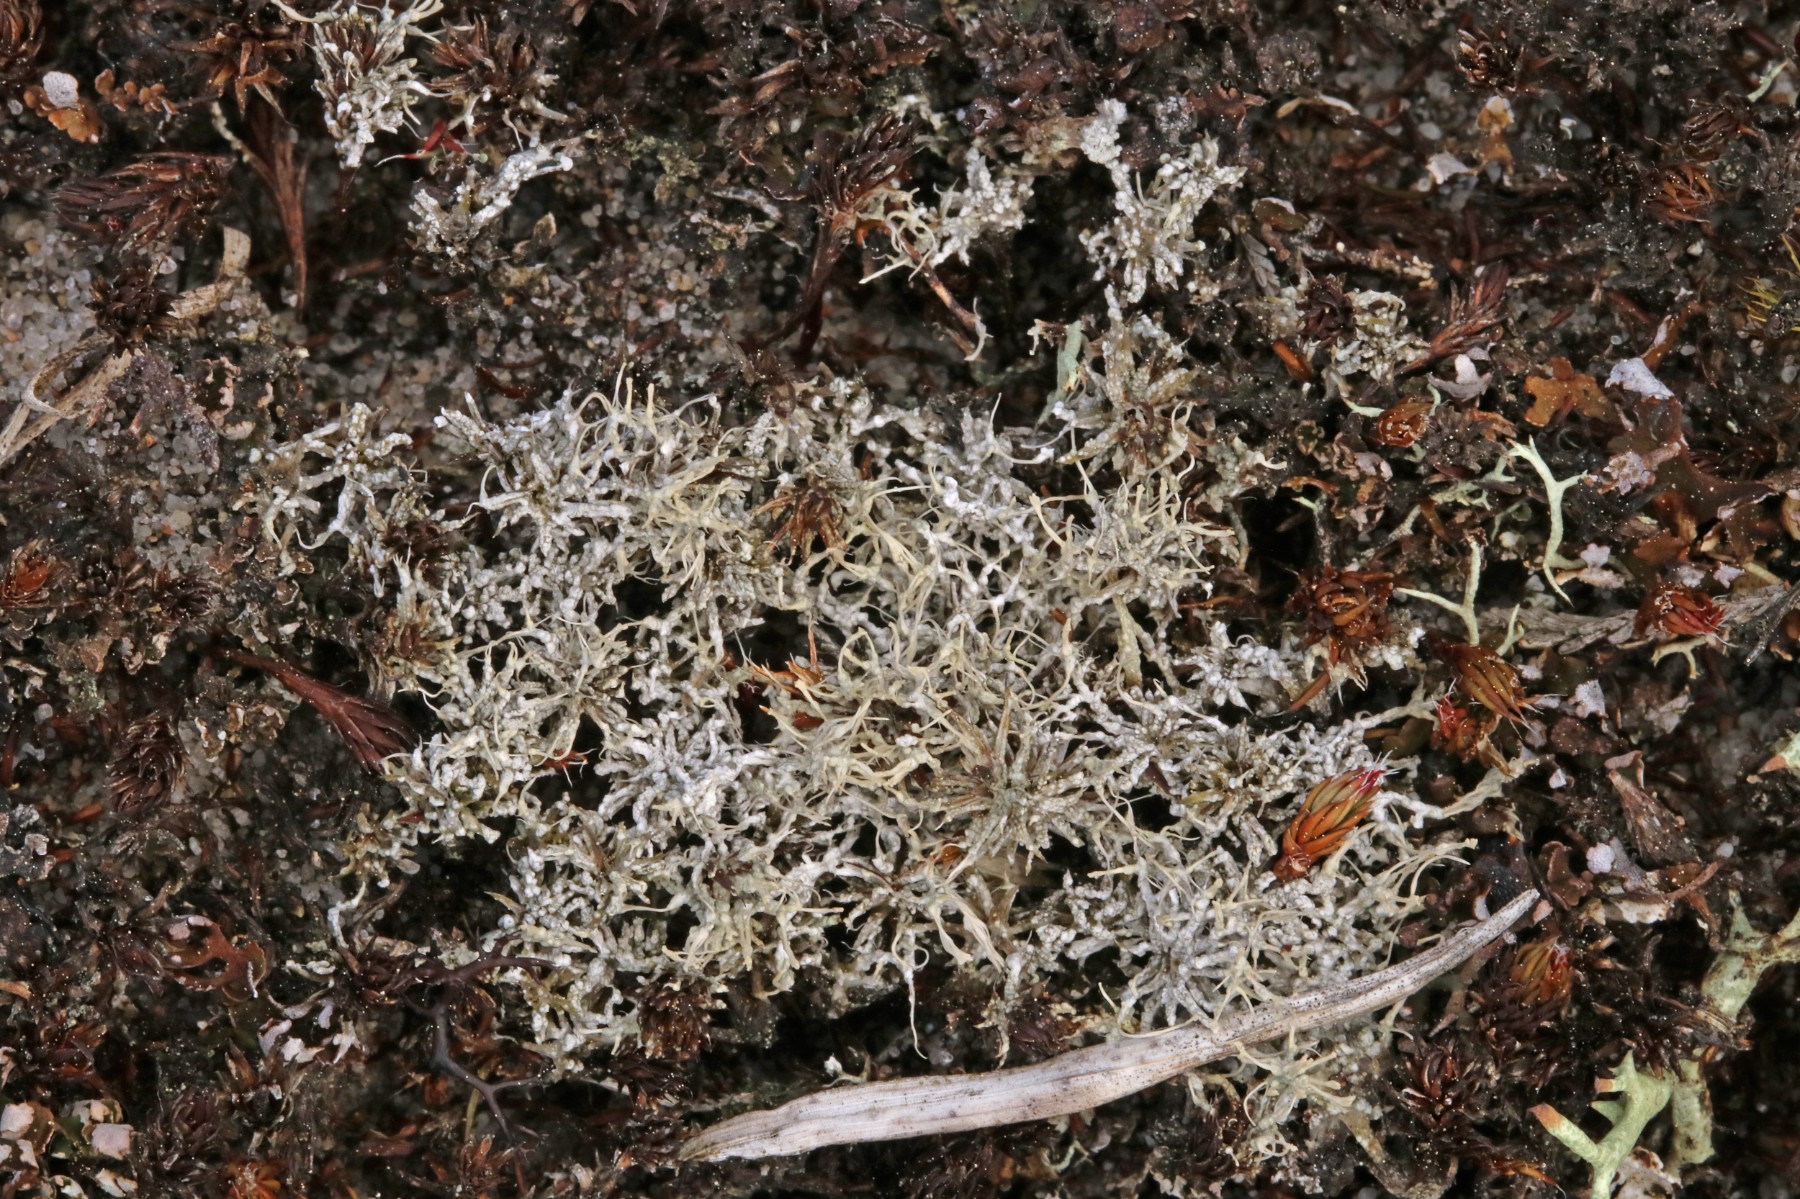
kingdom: Fungi
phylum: Ascomycota
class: Lecanoromycetes
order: Pertusariales
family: Ochrolechiaceae
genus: Ochrolechia
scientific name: Ochrolechia frigida
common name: fjeld-blegskivelav
